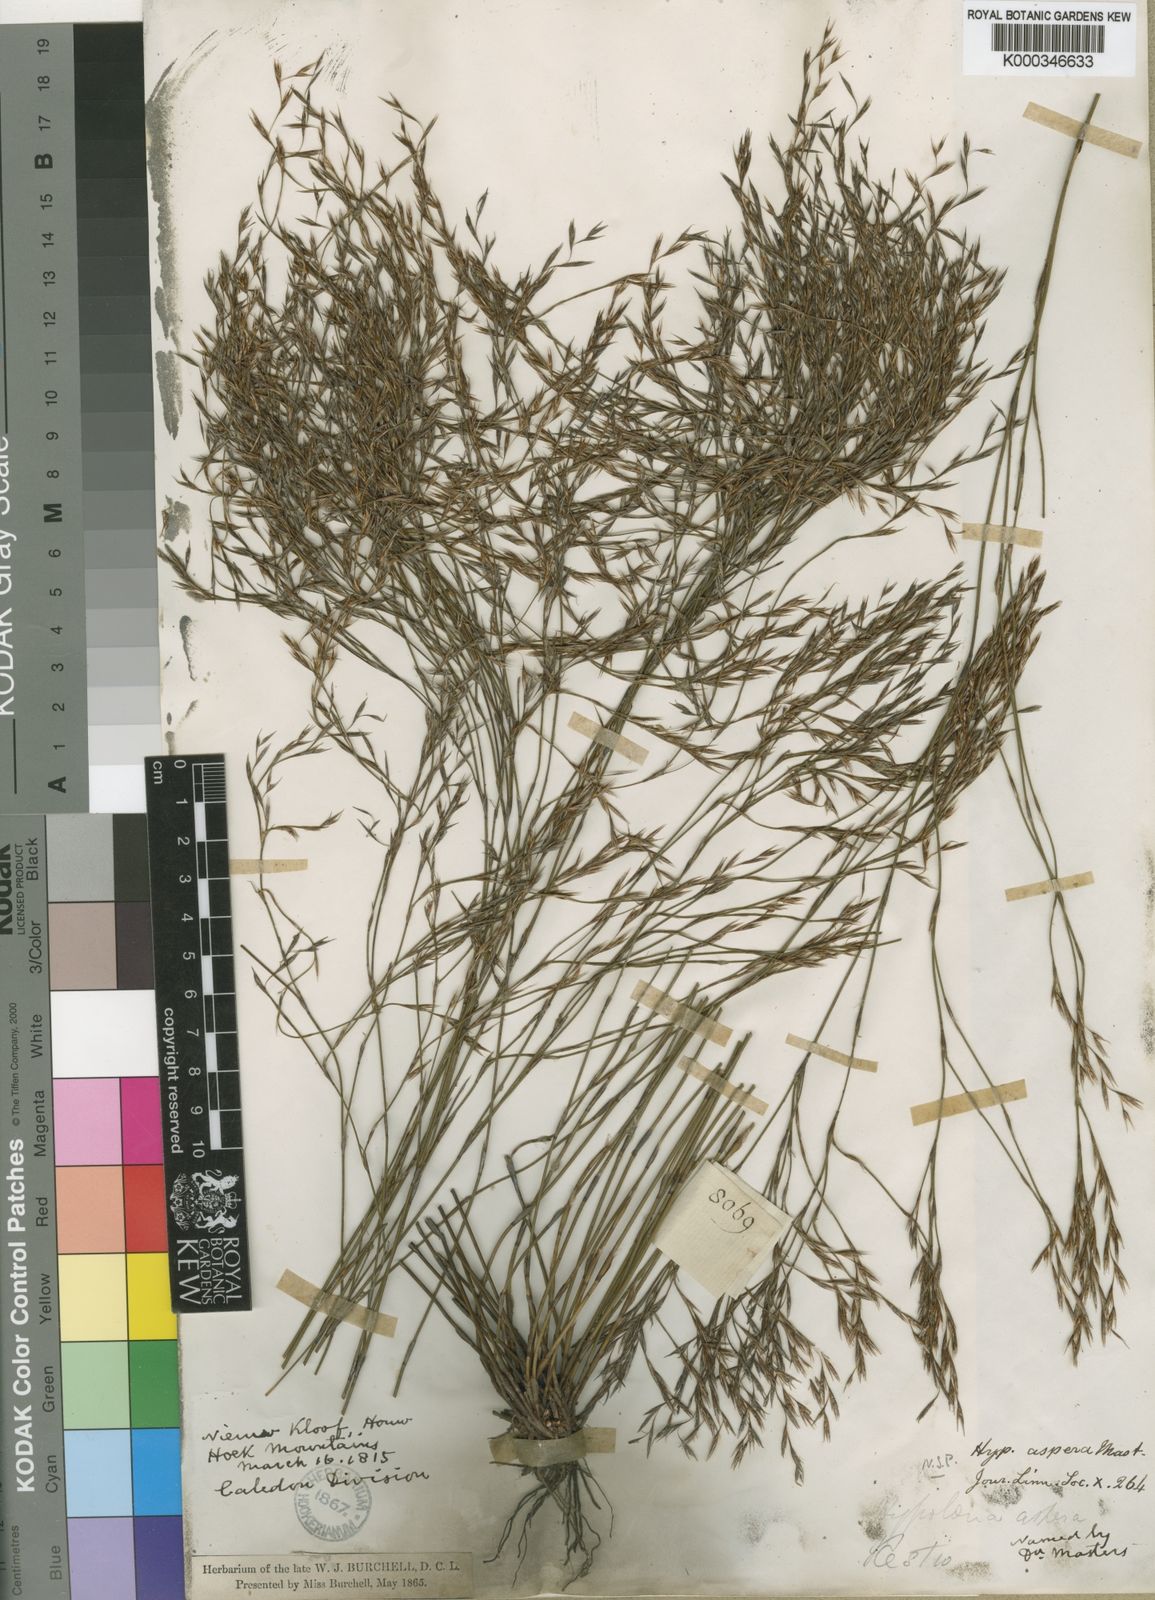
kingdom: Plantae
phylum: Tracheophyta
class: Liliopsida
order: Poales
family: Restionaceae
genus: Restio
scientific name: Restio asperus
